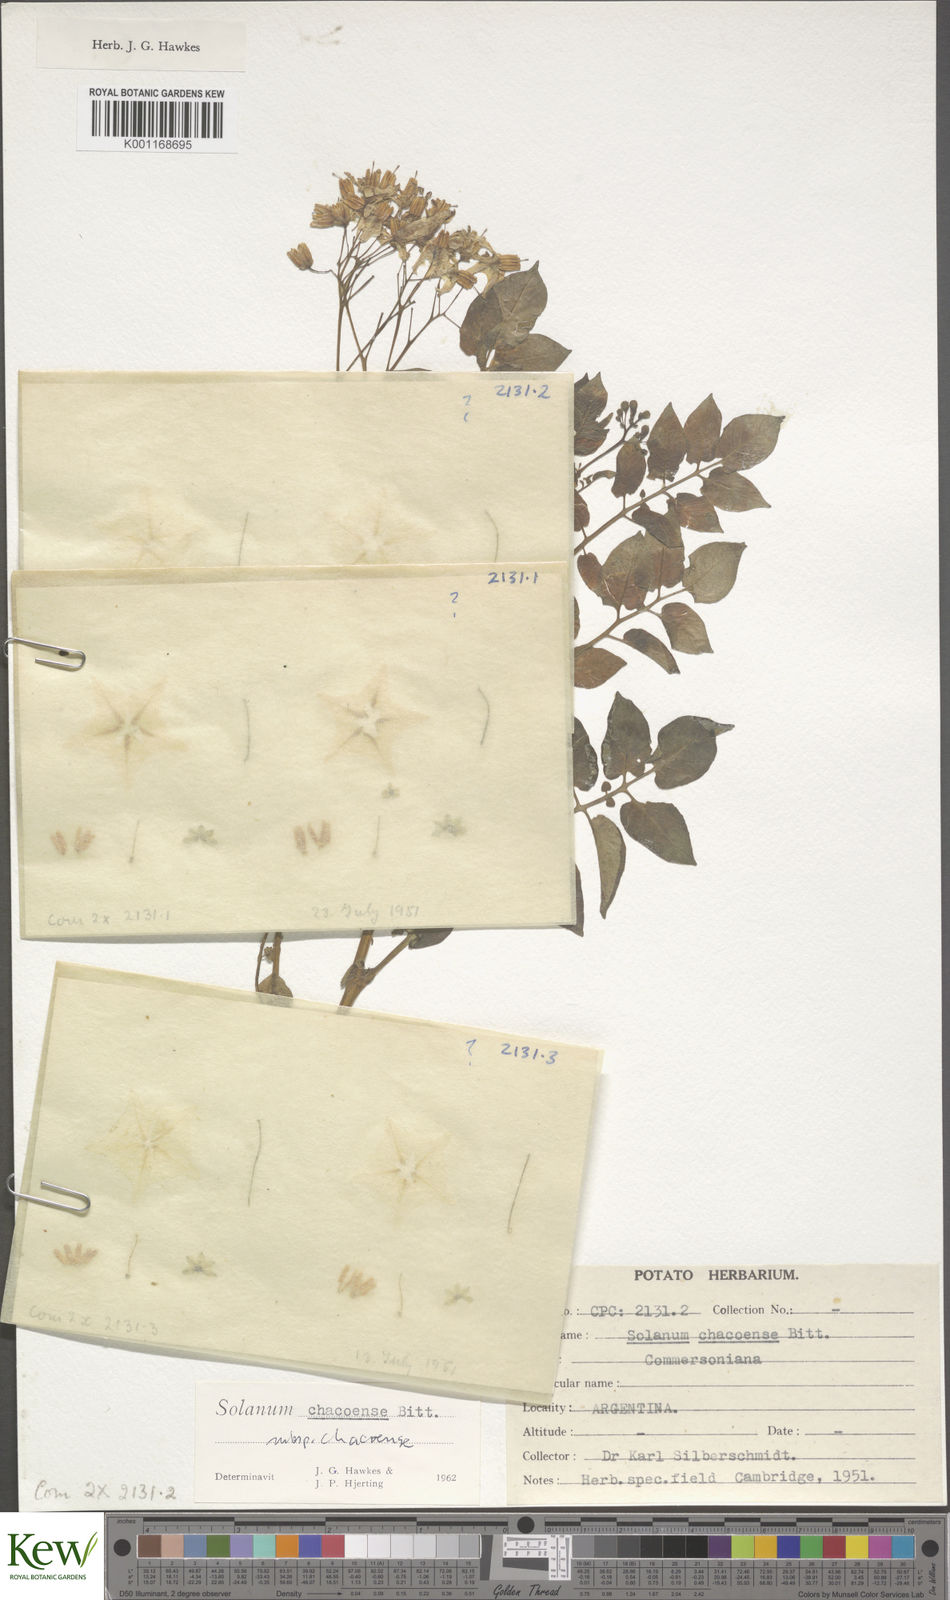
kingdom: Plantae
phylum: Tracheophyta
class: Magnoliopsida
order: Solanales
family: Solanaceae
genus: Solanum
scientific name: Solanum chacoense
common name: Chaco potato
